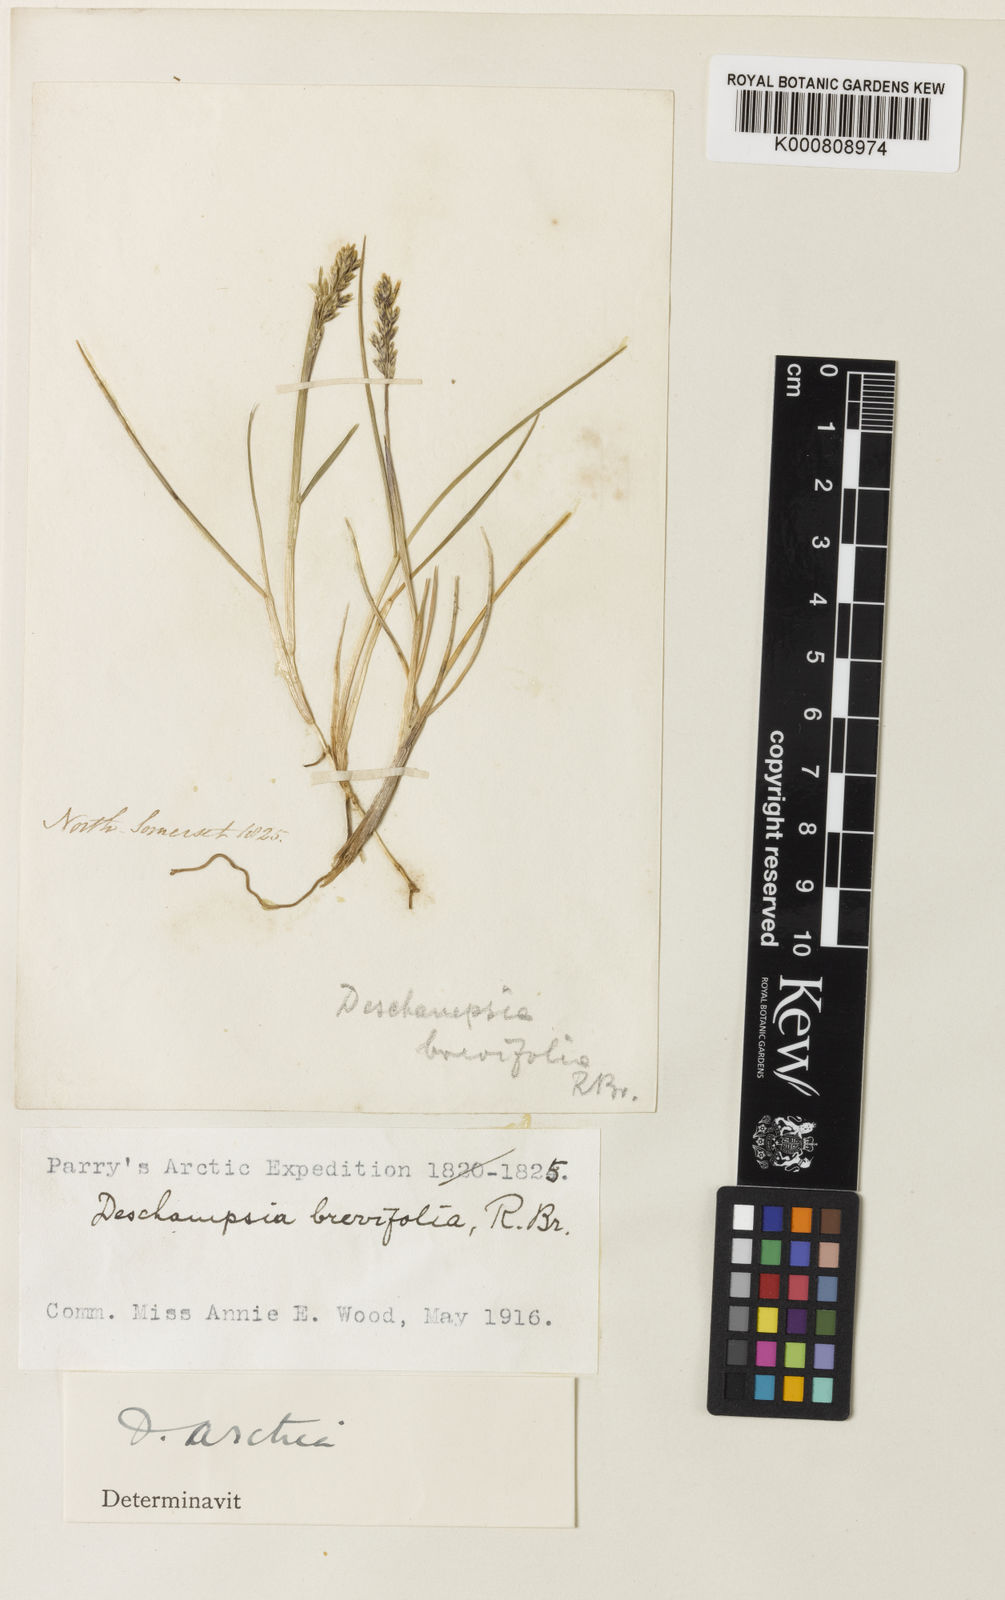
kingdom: Plantae
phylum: Tracheophyta
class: Liliopsida
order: Poales
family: Poaceae
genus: Deschampsia
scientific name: Deschampsia
